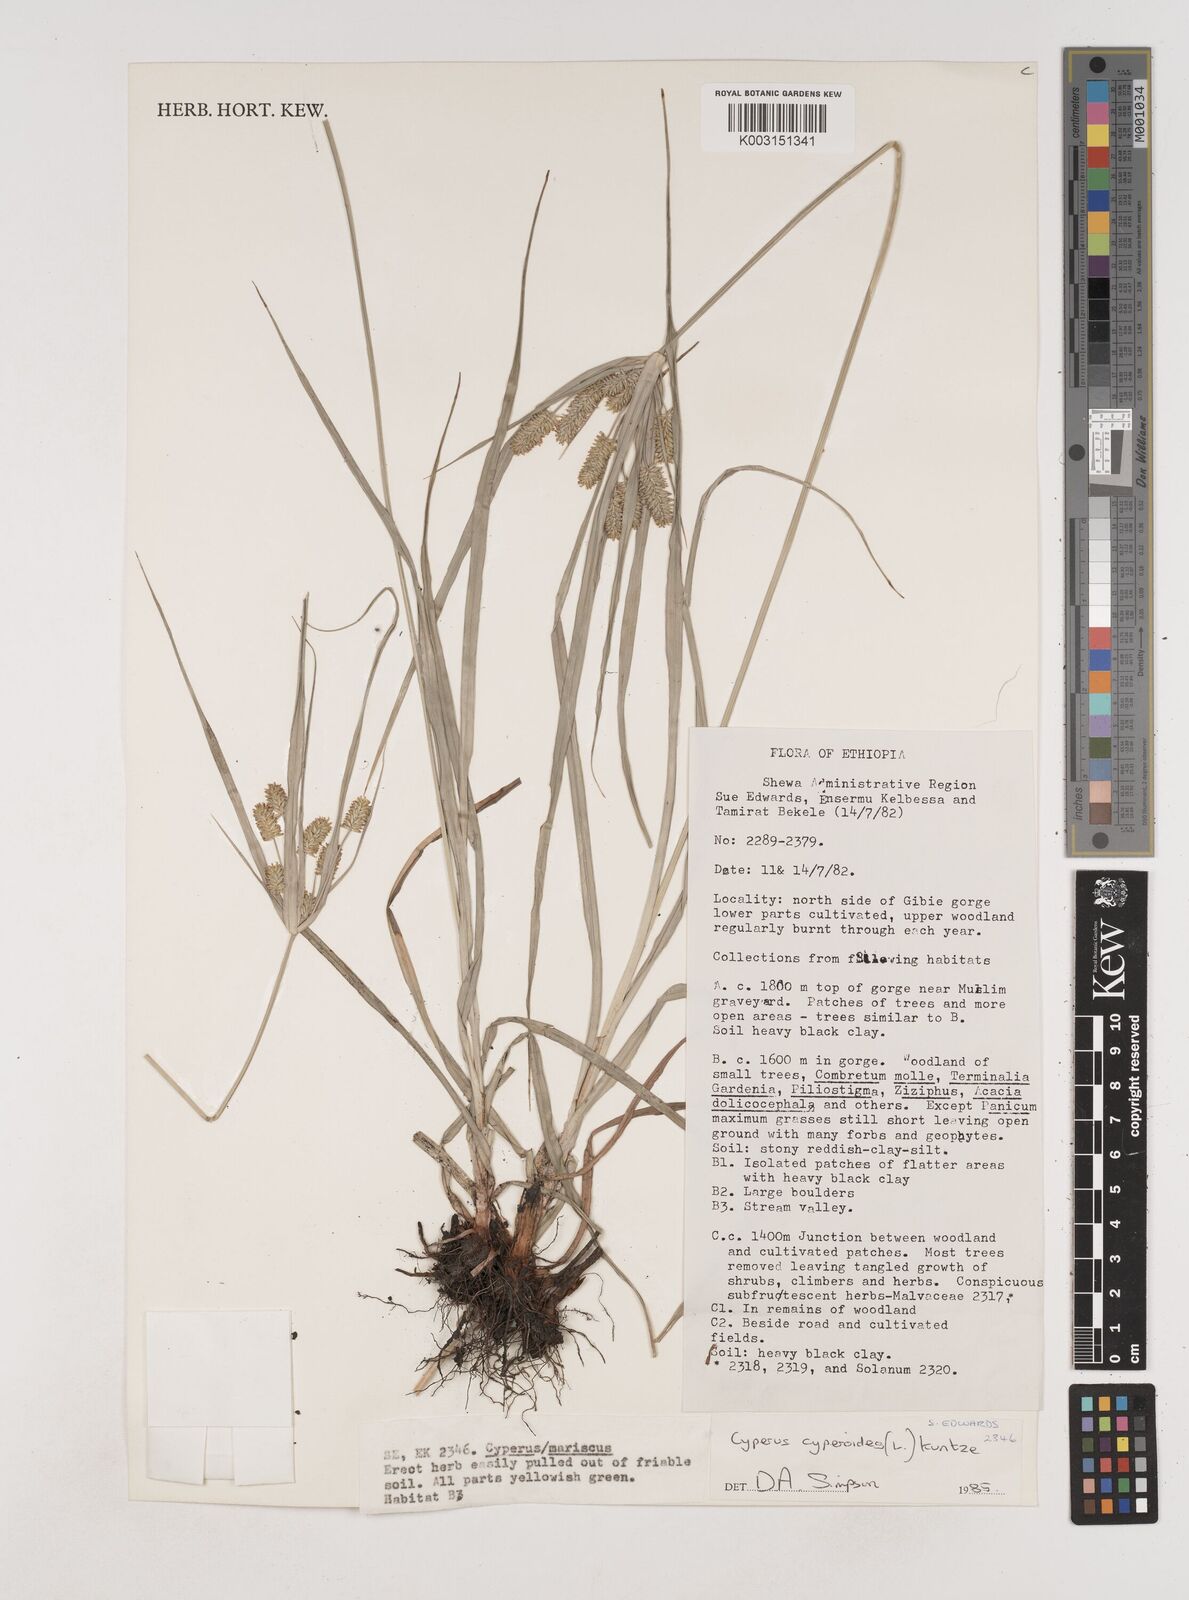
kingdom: Plantae
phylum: Tracheophyta
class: Liliopsida
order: Poales
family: Cyperaceae
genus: Cyperus
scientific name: Cyperus cyperoides
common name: Pacific island flat sedge
